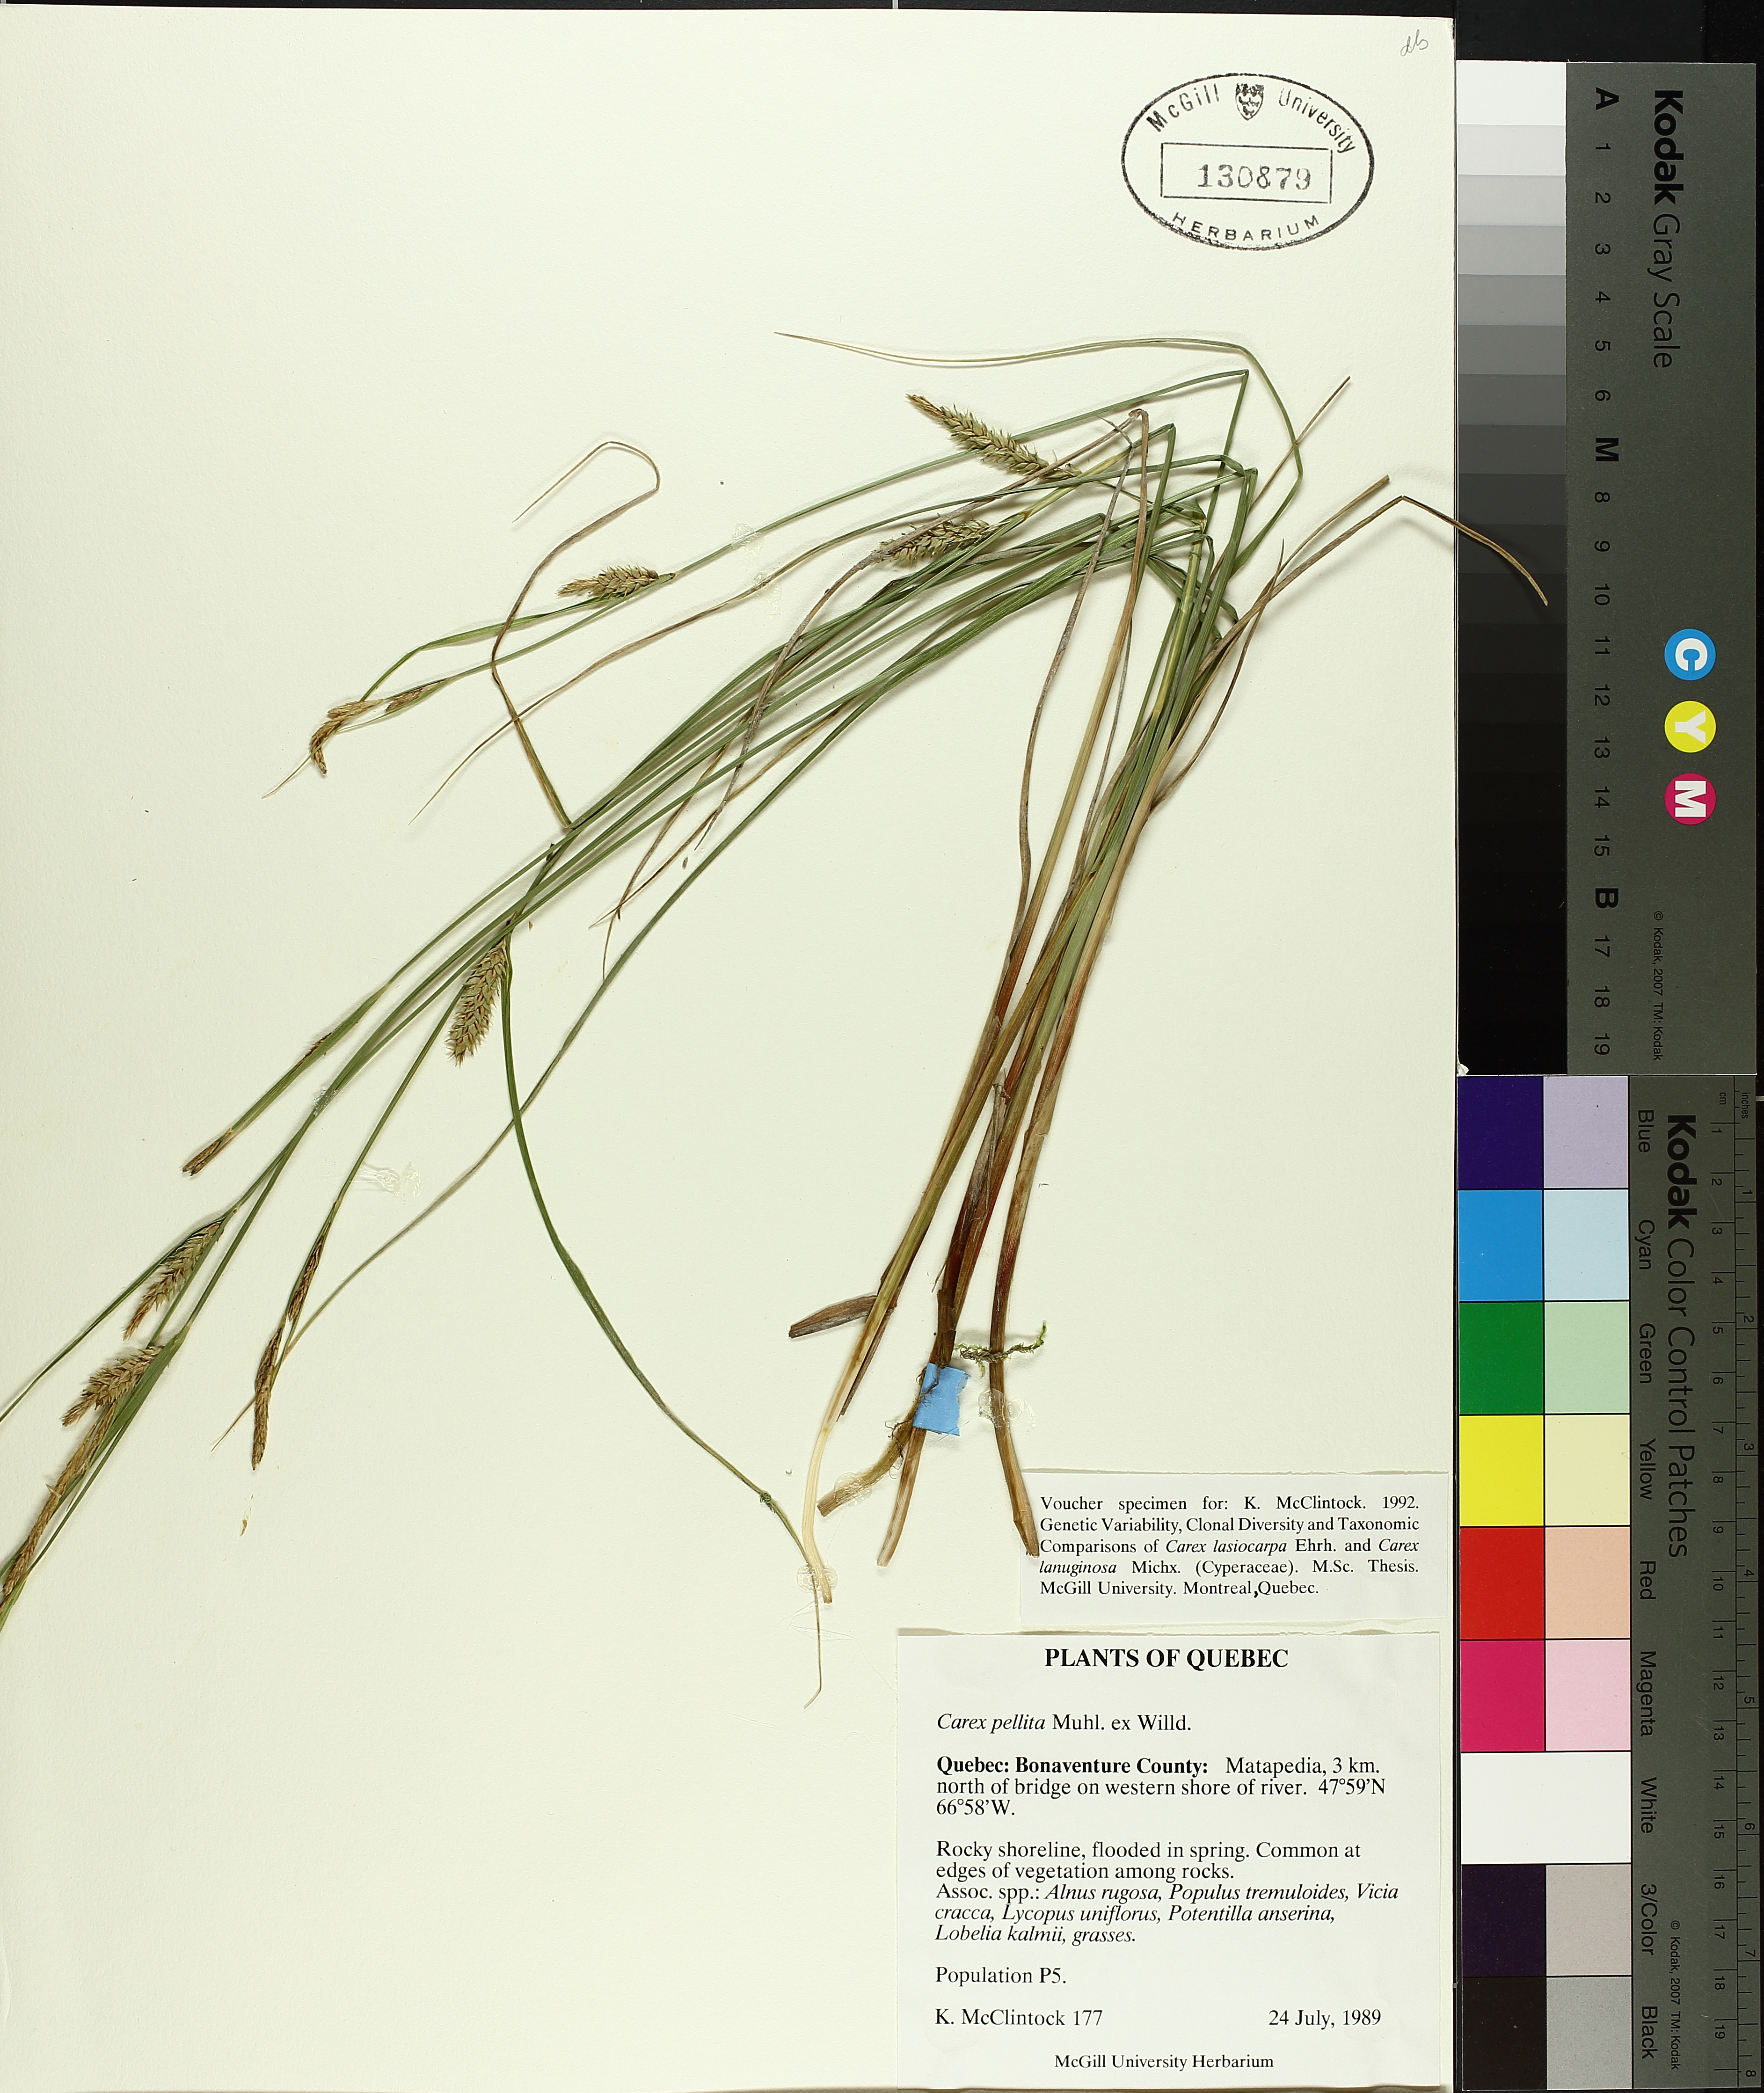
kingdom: Plantae
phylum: Tracheophyta
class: Liliopsida
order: Poales
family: Cyperaceae
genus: Carex
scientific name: Carex pellita
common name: Woolly sedge
